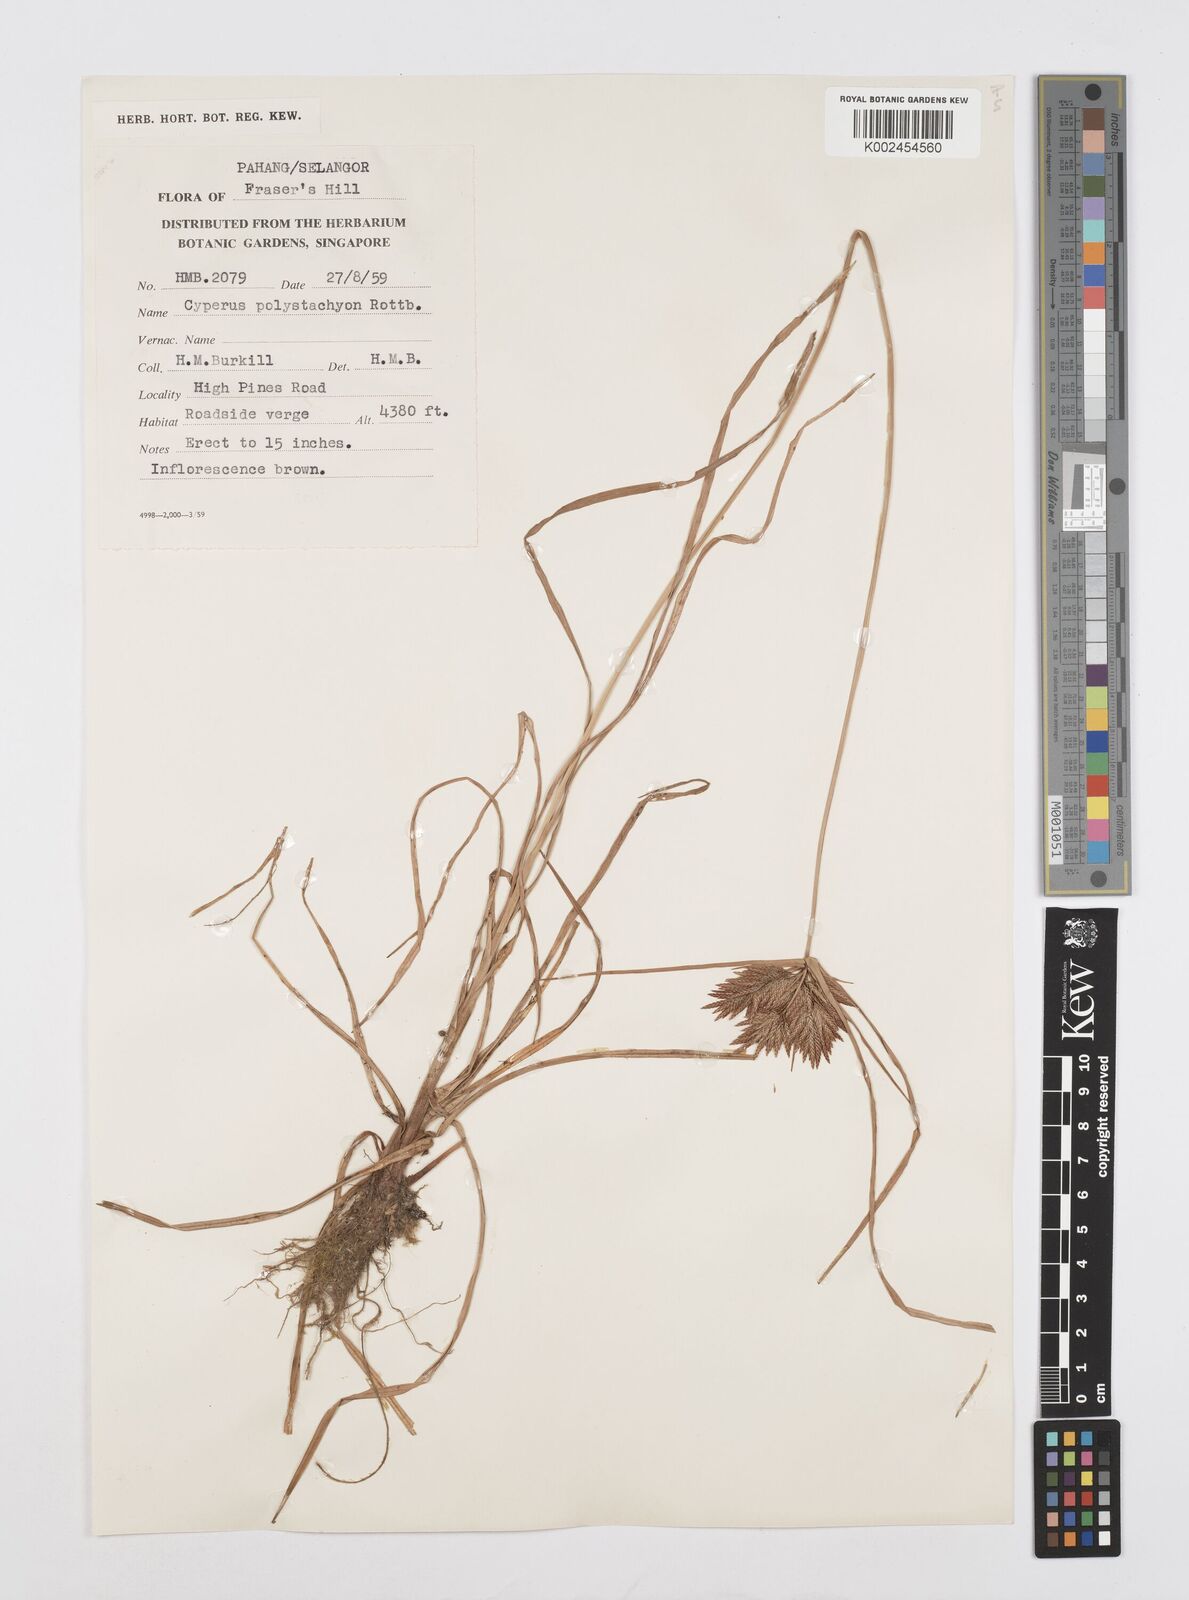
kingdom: Plantae
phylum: Tracheophyta
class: Liliopsida
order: Poales
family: Cyperaceae
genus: Cyperus
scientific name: Cyperus polystachyos
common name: Bunchy flat sedge
